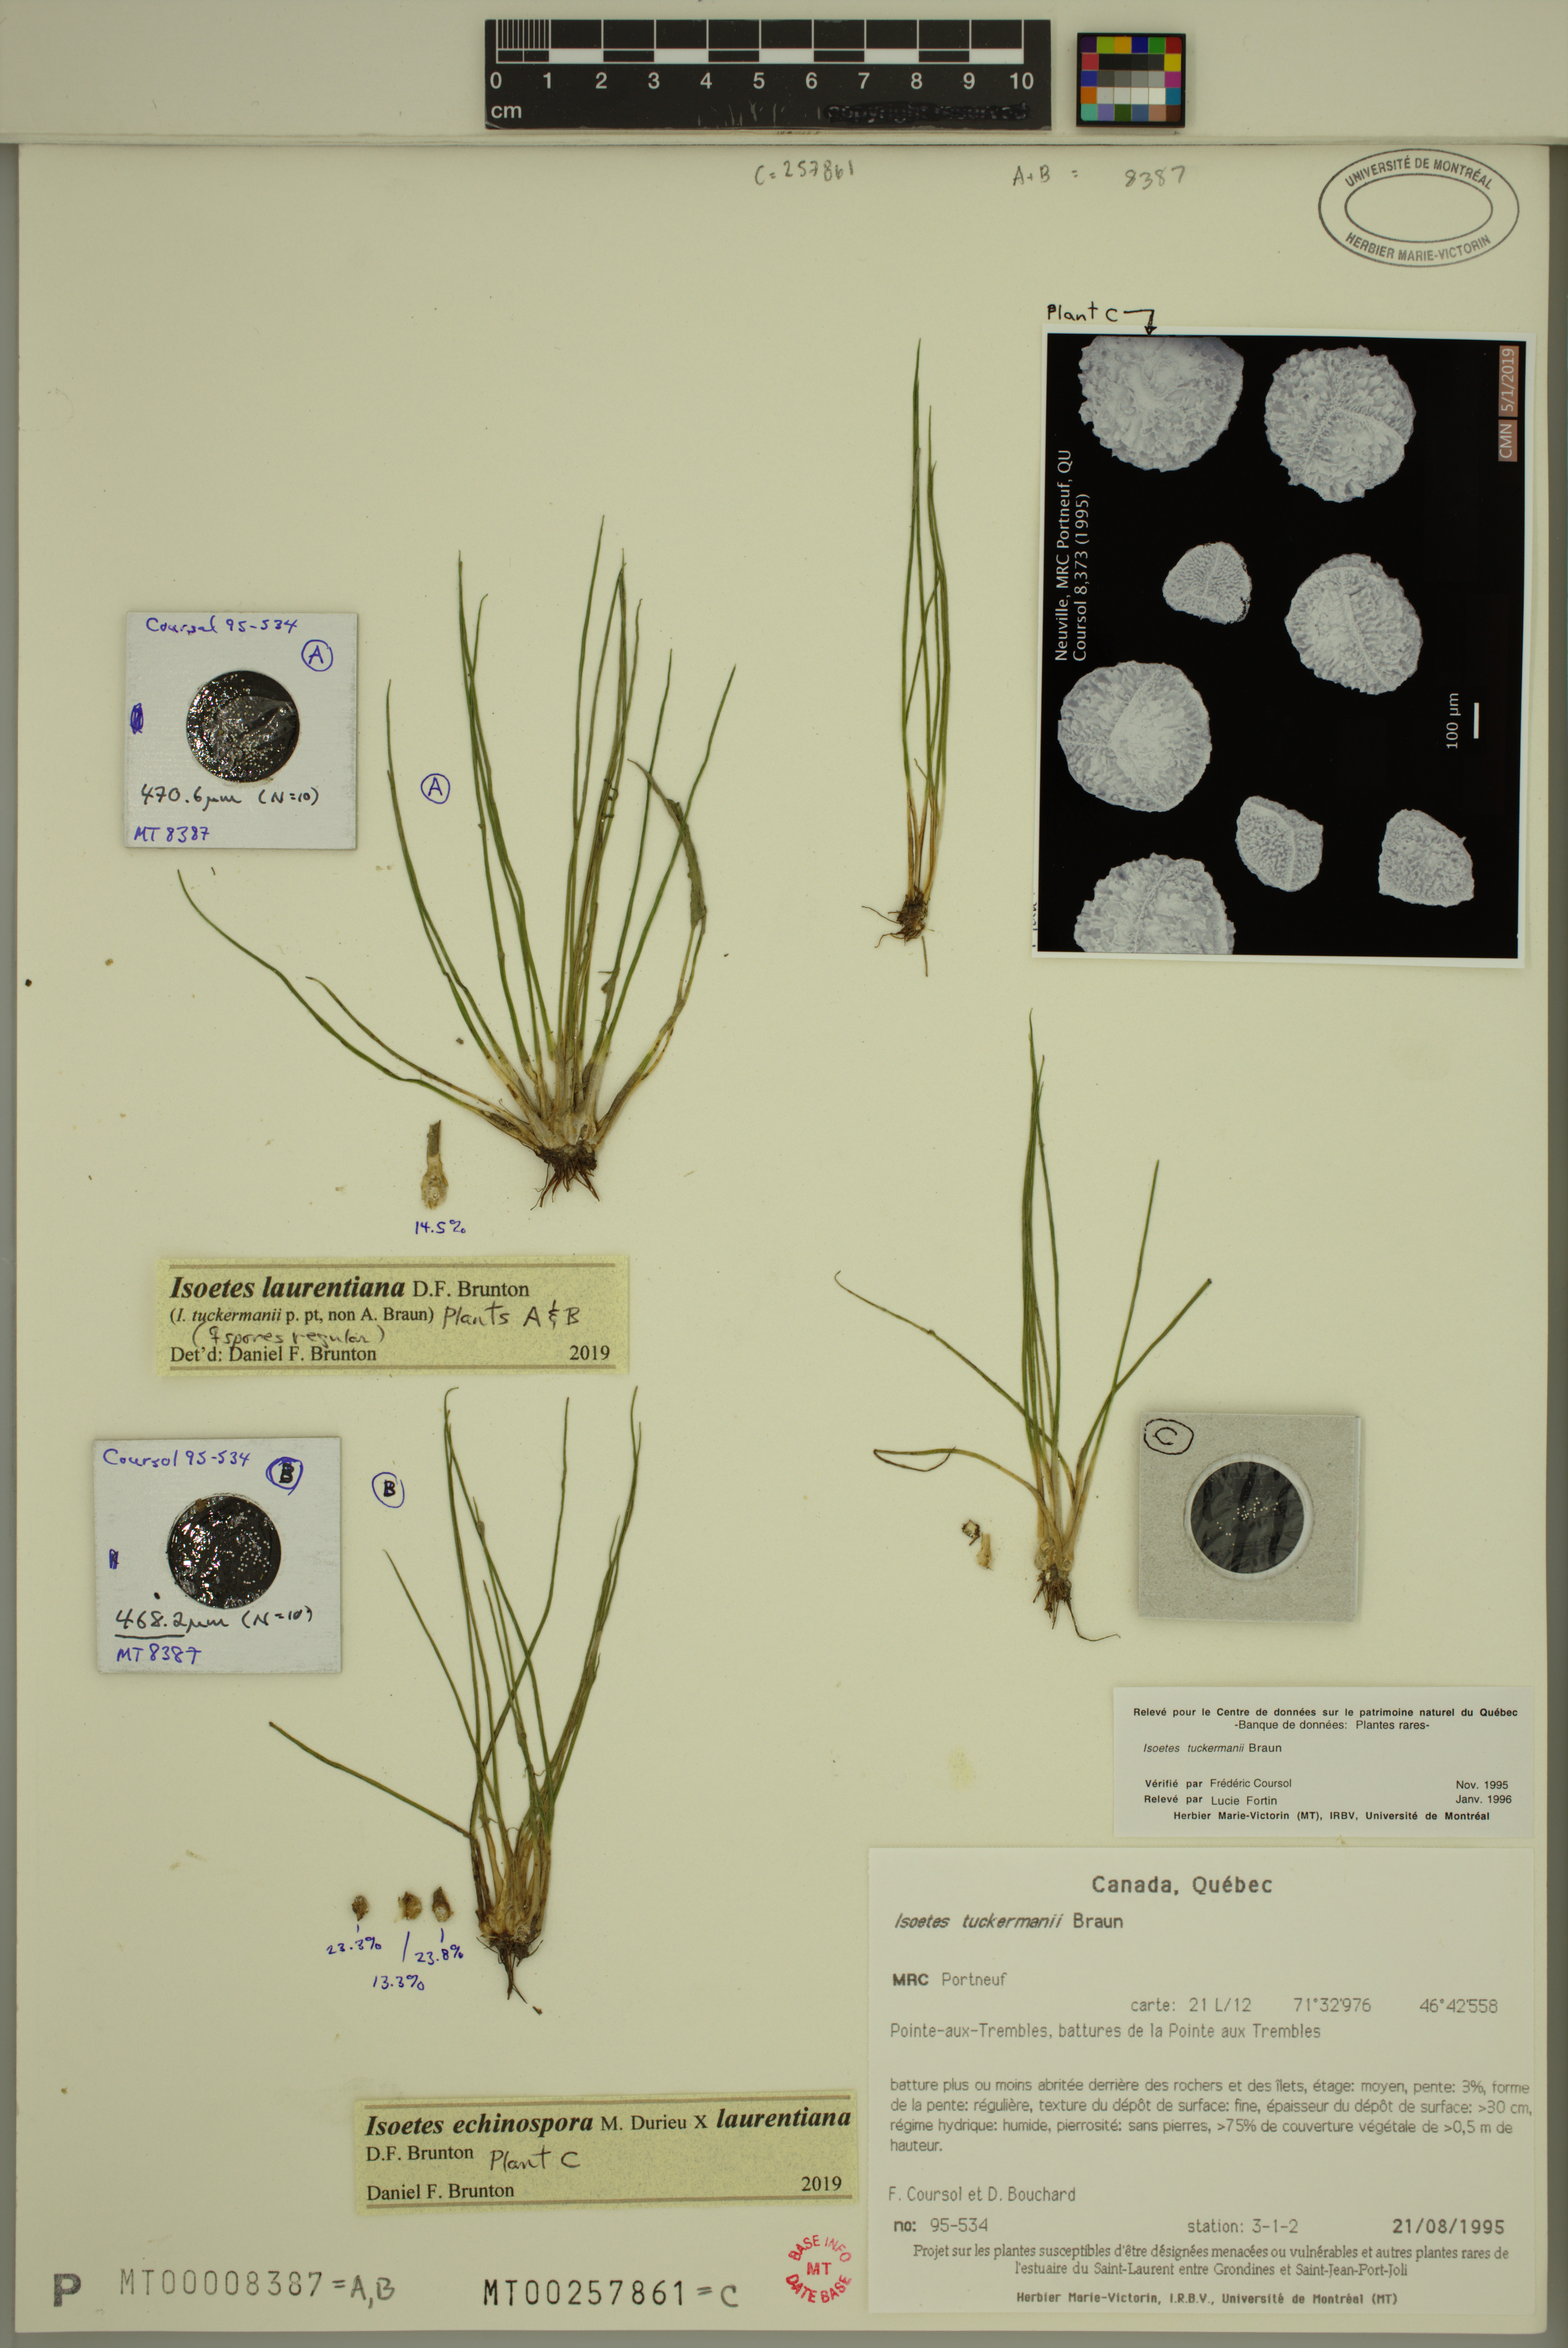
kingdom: Plantae
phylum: Tracheophyta
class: Lycopodiopsida
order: Isoetales
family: Isoetaceae
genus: Isoetes
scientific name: Isoetes echinospora
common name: Spring quillwort
